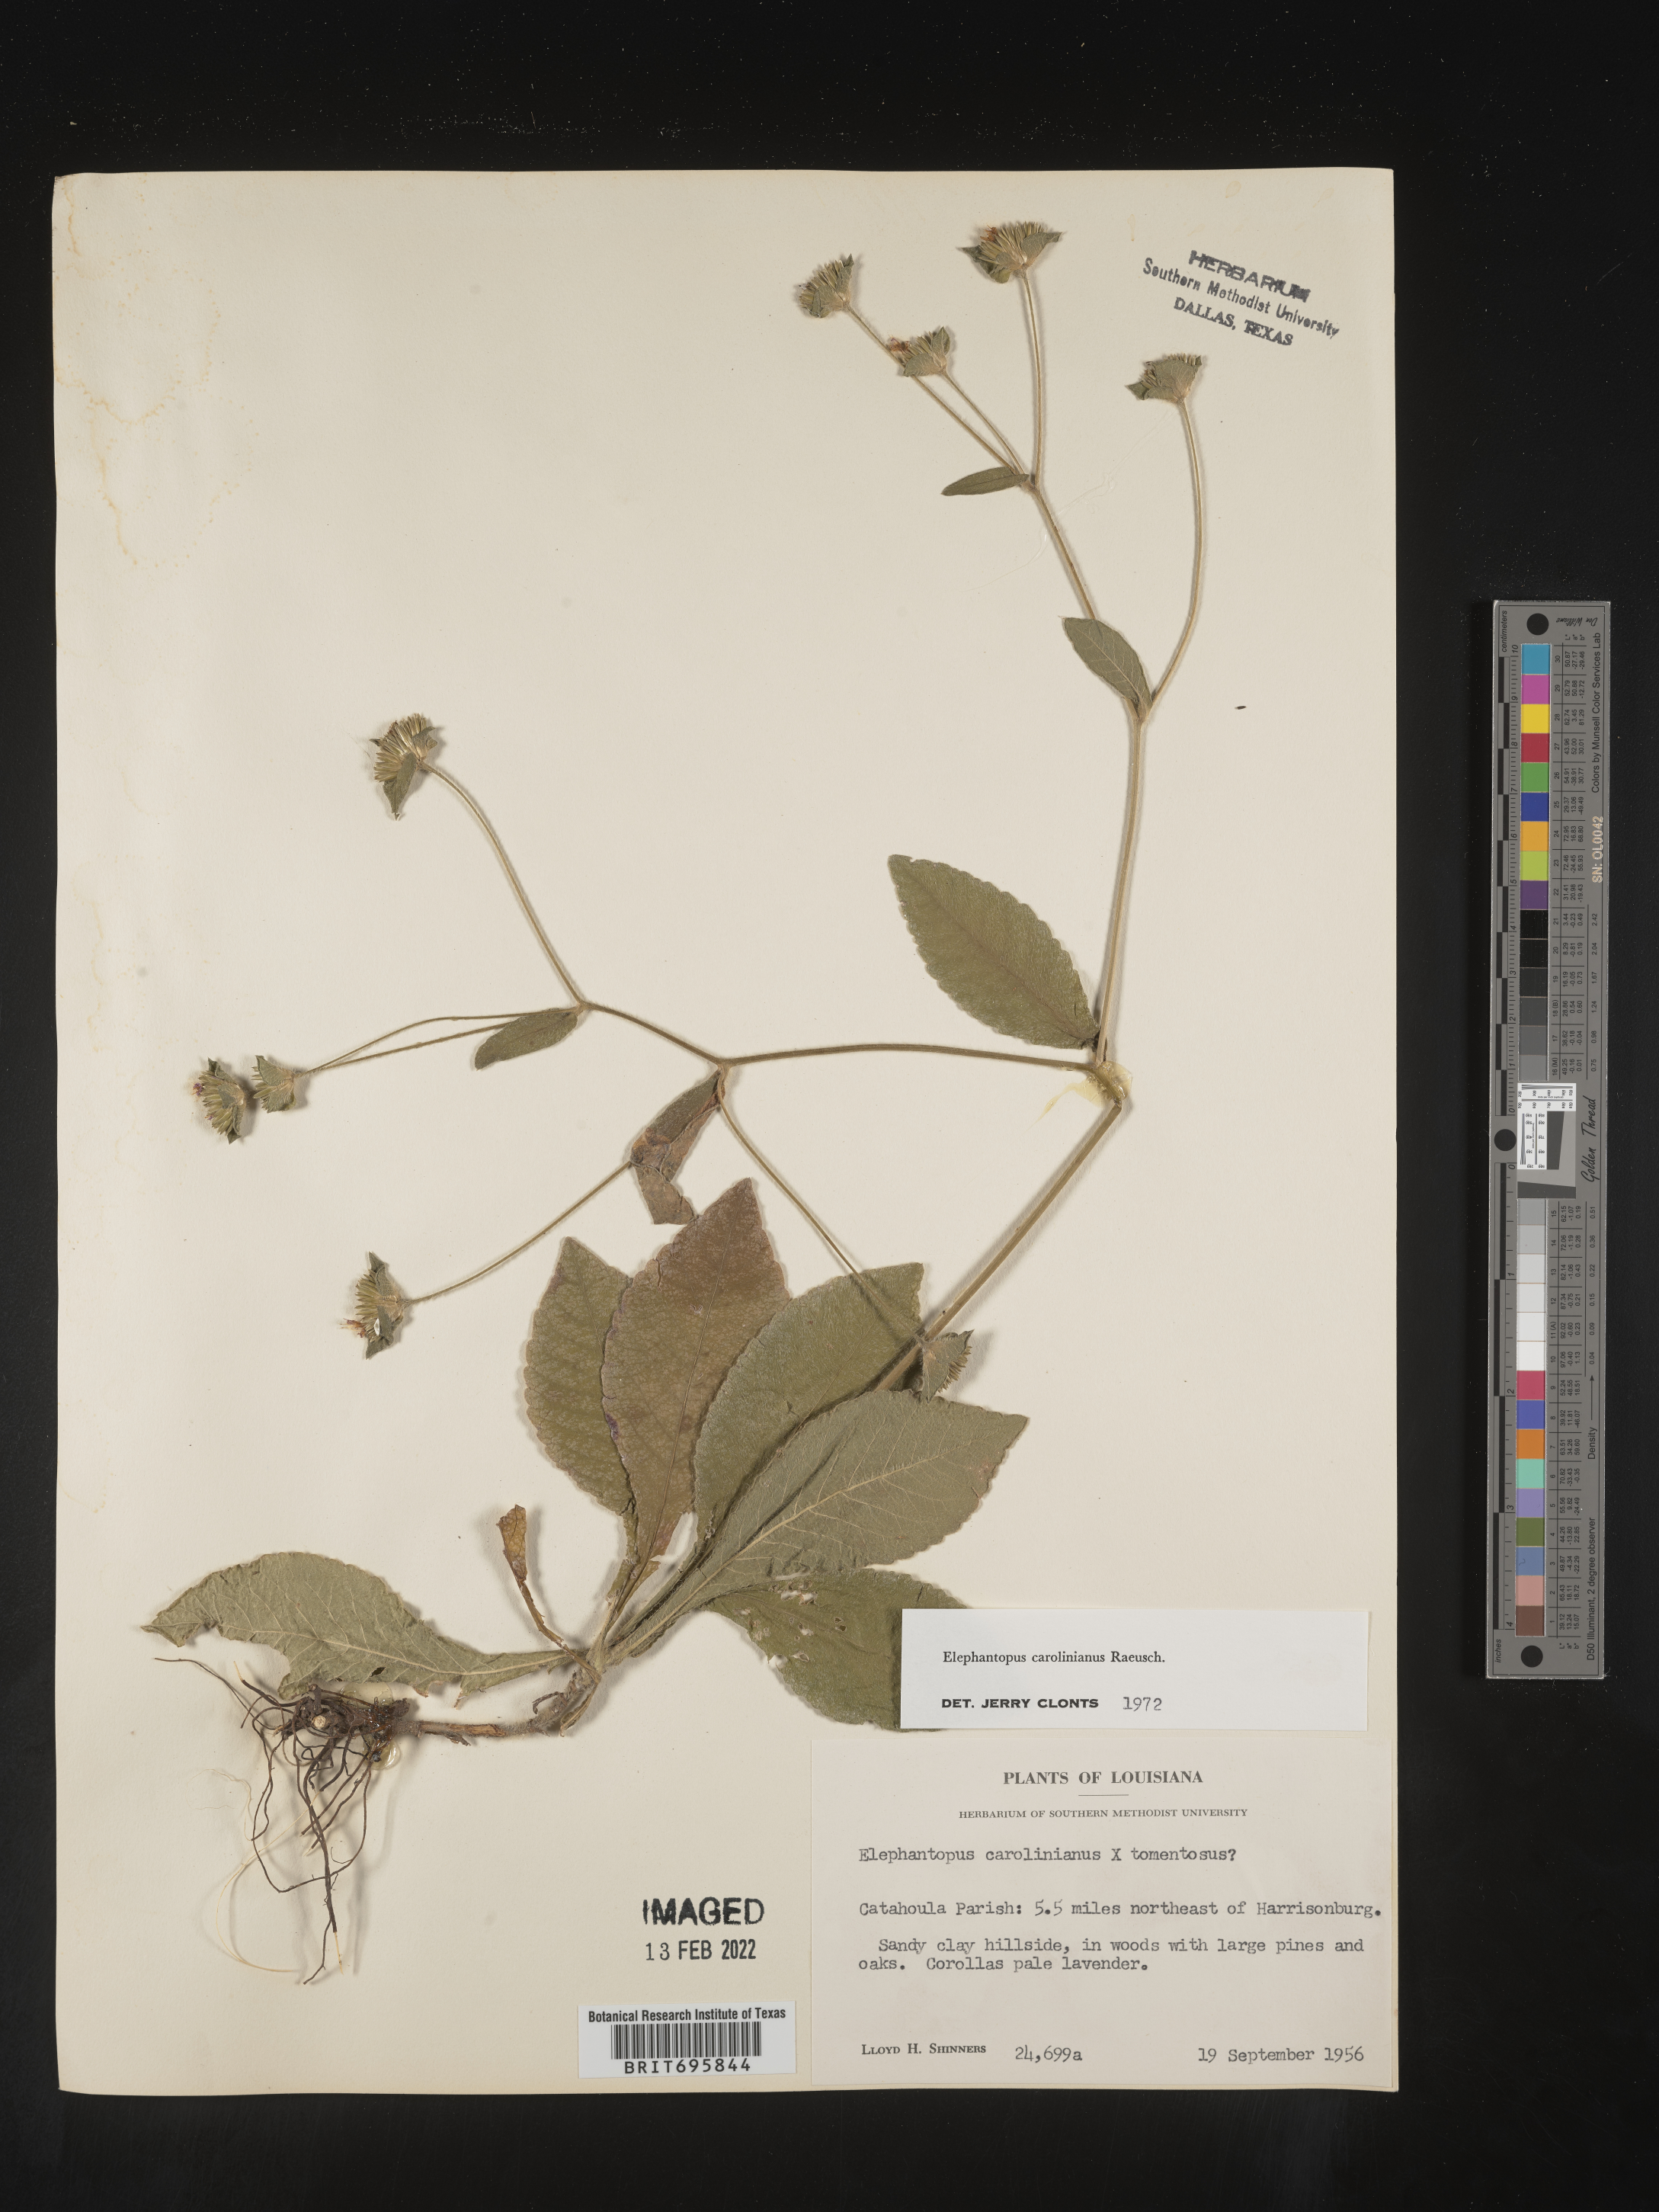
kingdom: Plantae
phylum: Tracheophyta
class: Magnoliopsida
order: Asterales
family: Asteraceae
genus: Elephantopus
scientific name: Elephantopus carolinianus
